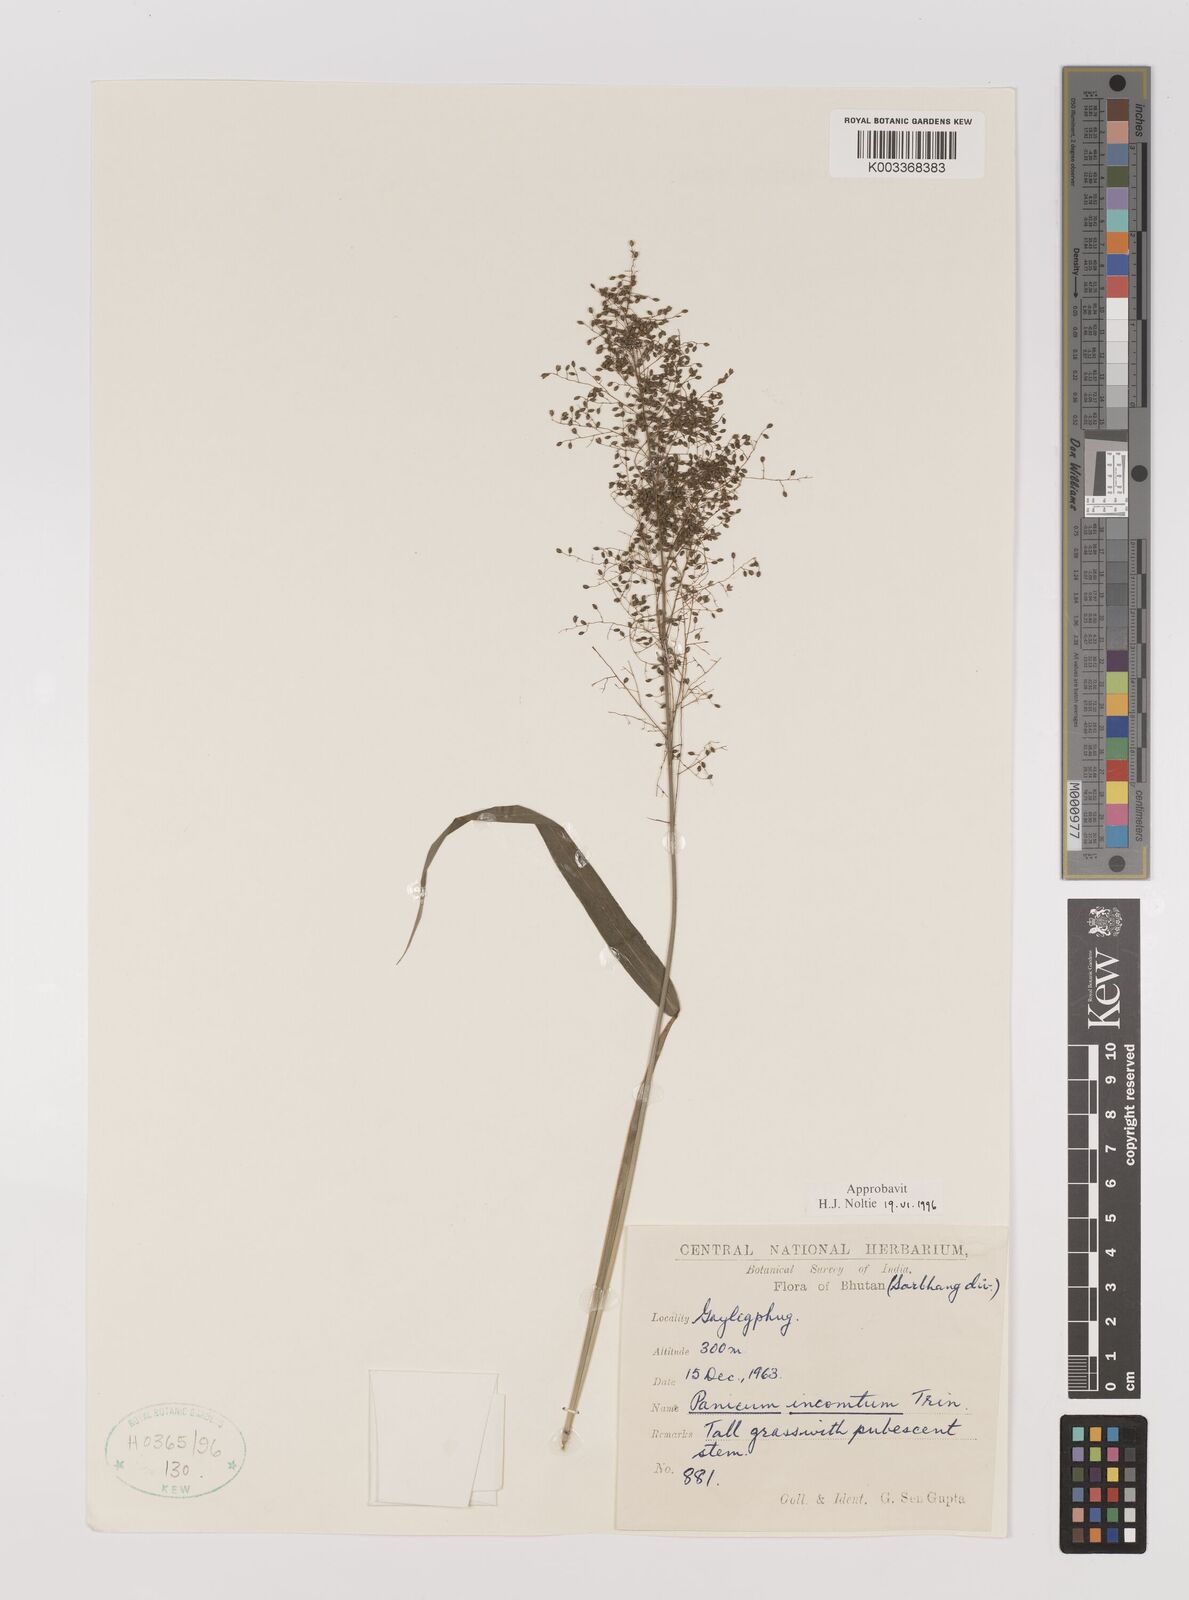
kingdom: Plantae
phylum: Tracheophyta
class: Liliopsida
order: Poales
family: Poaceae
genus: Panicum
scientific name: Panicum incomtum
